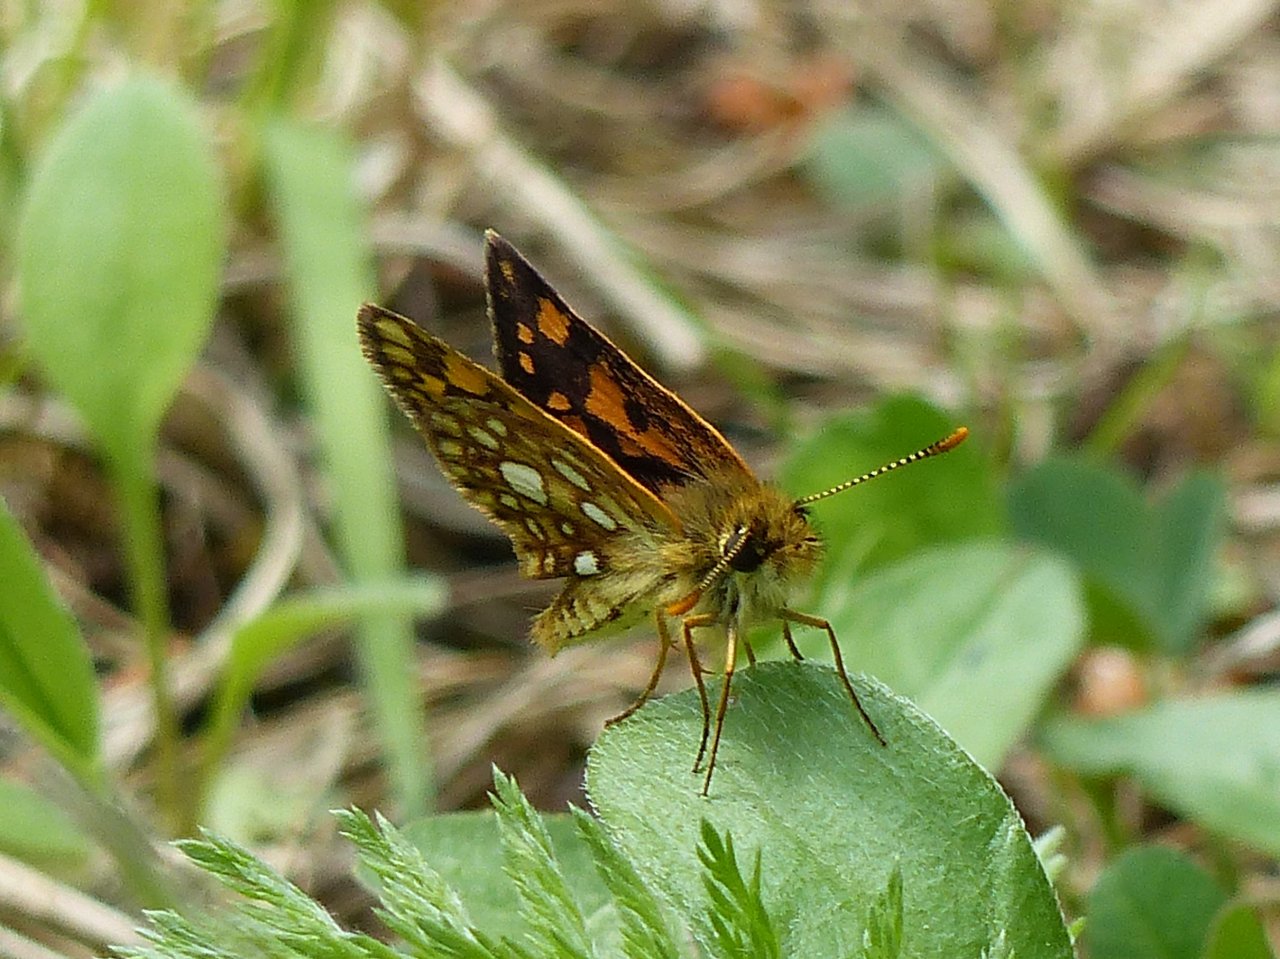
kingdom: Animalia
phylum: Arthropoda
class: Insecta
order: Lepidoptera
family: Hesperiidae
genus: Carterocephalus
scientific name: Carterocephalus palaemon
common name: Chequered Skipper
